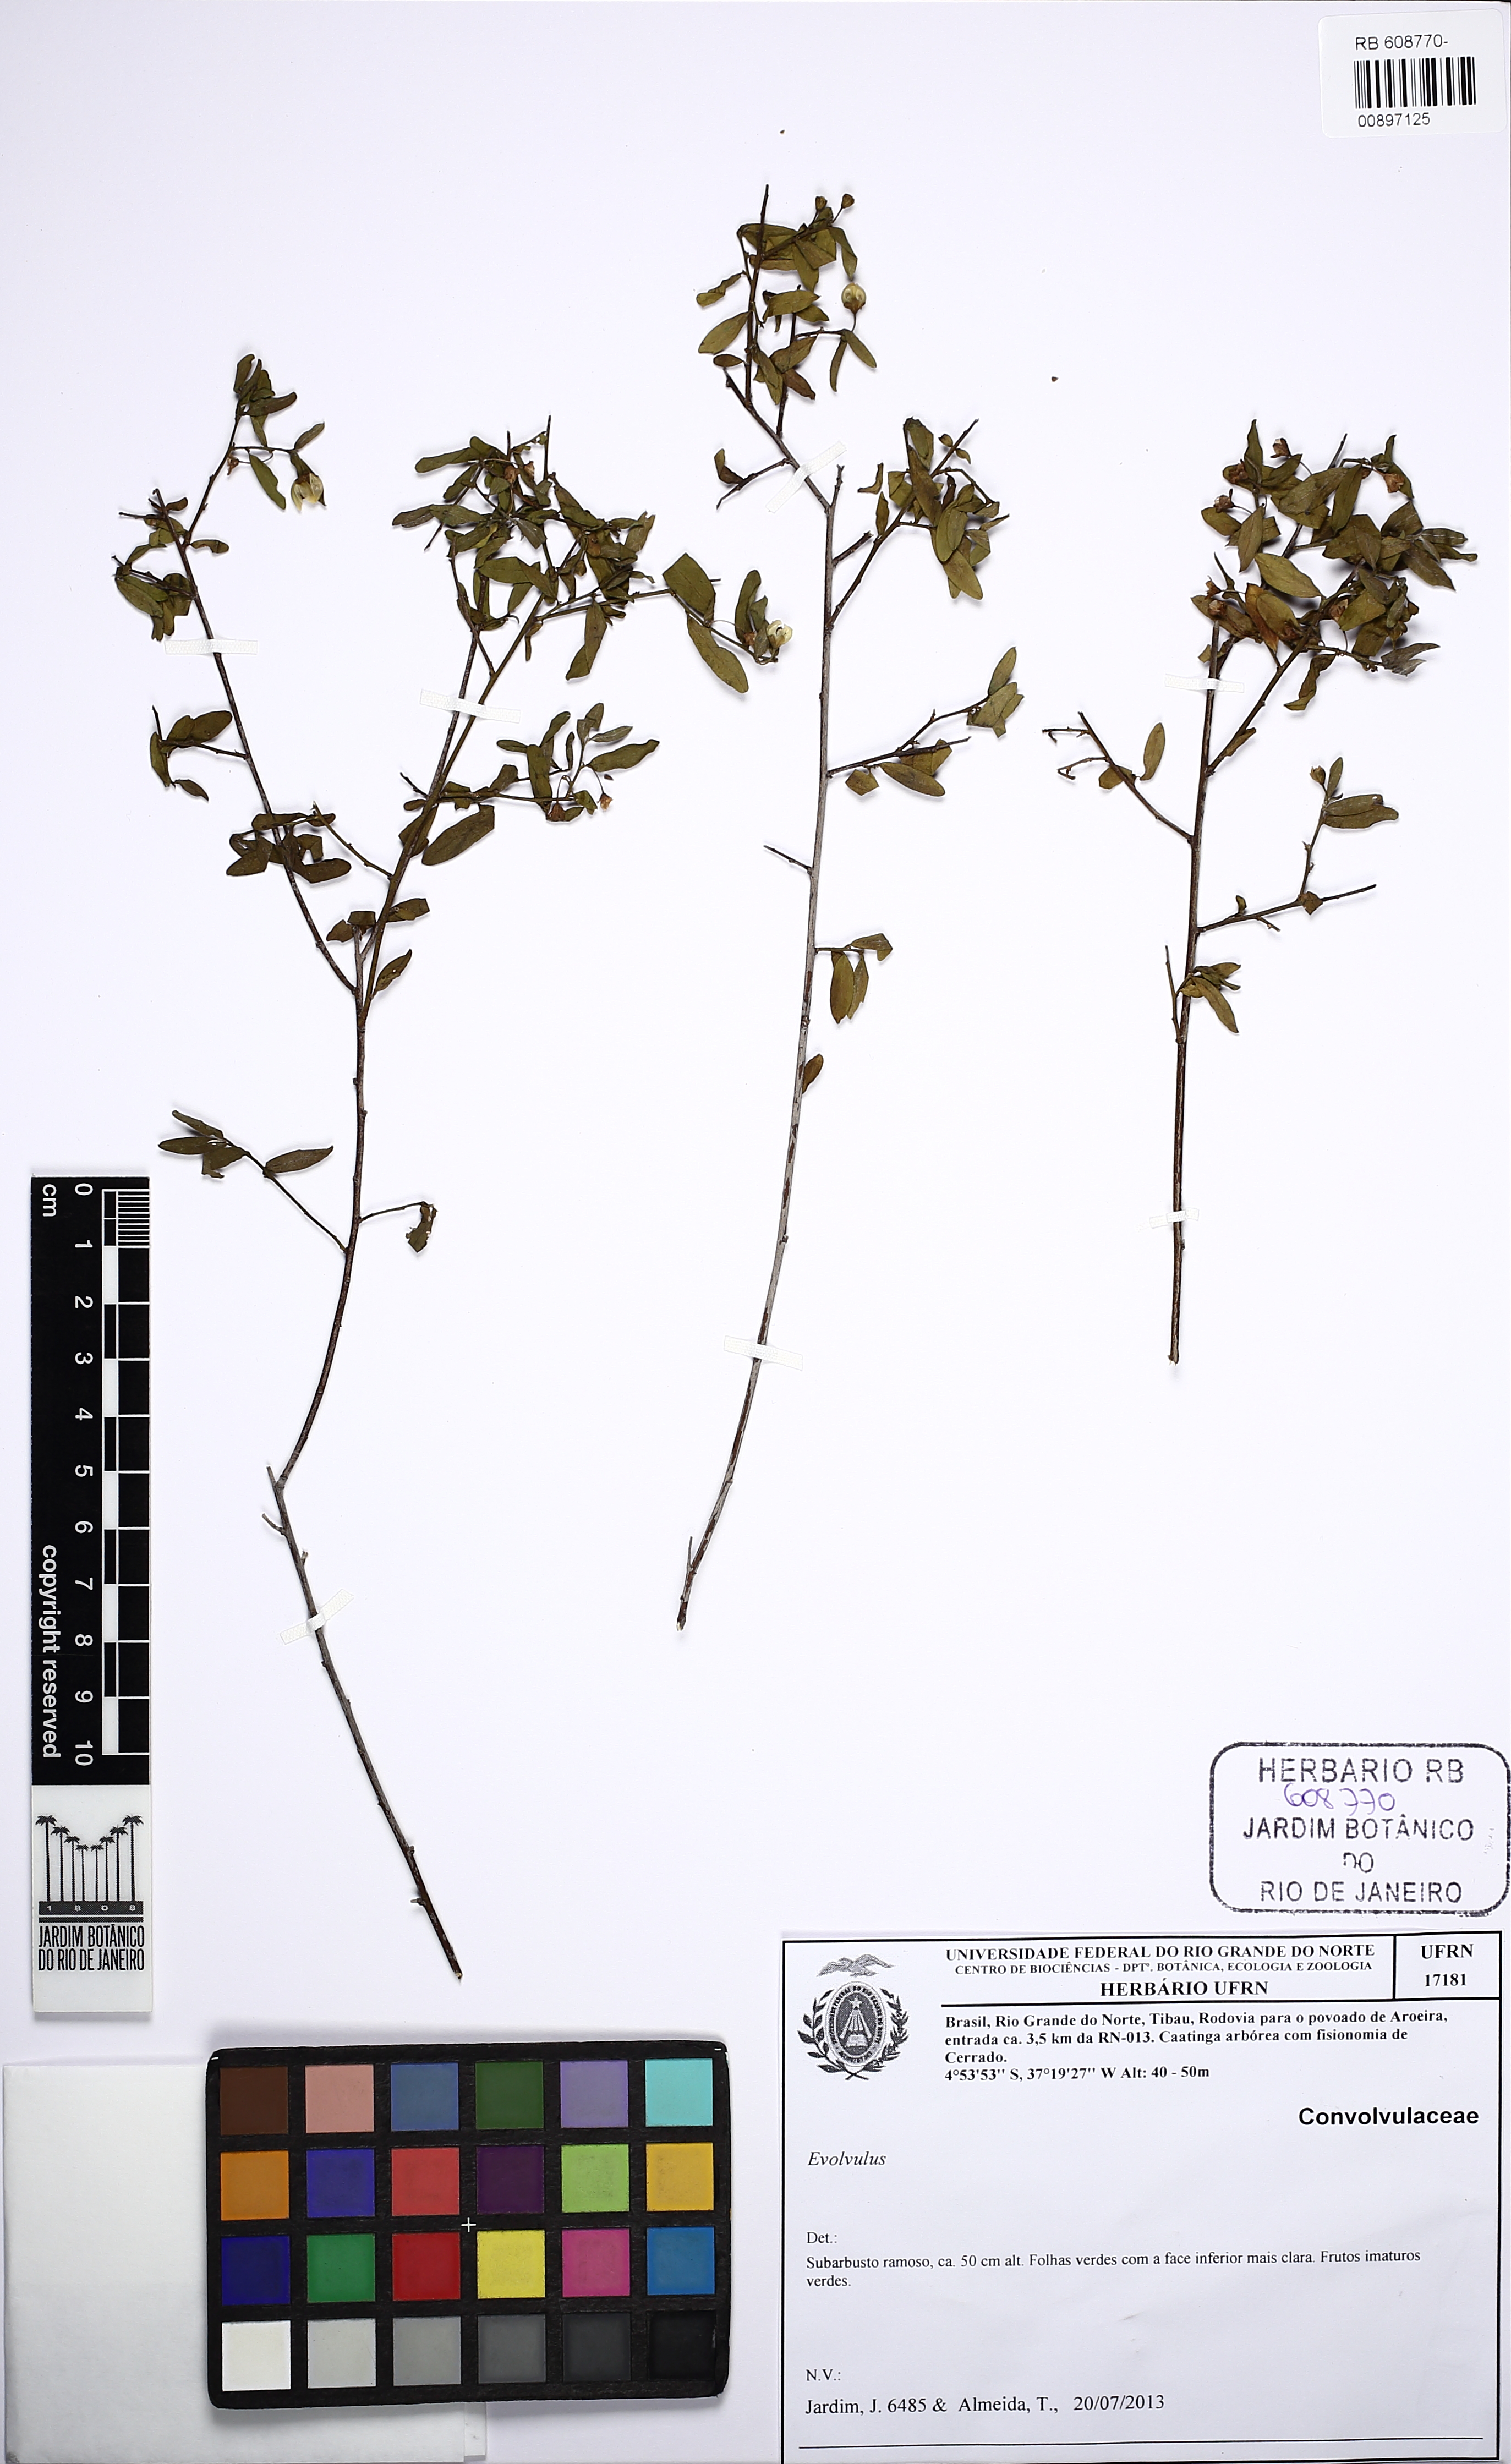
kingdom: Plantae
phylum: Tracheophyta
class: Magnoliopsida
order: Solanales
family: Convolvulaceae
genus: Evolvulus
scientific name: Evolvulus
